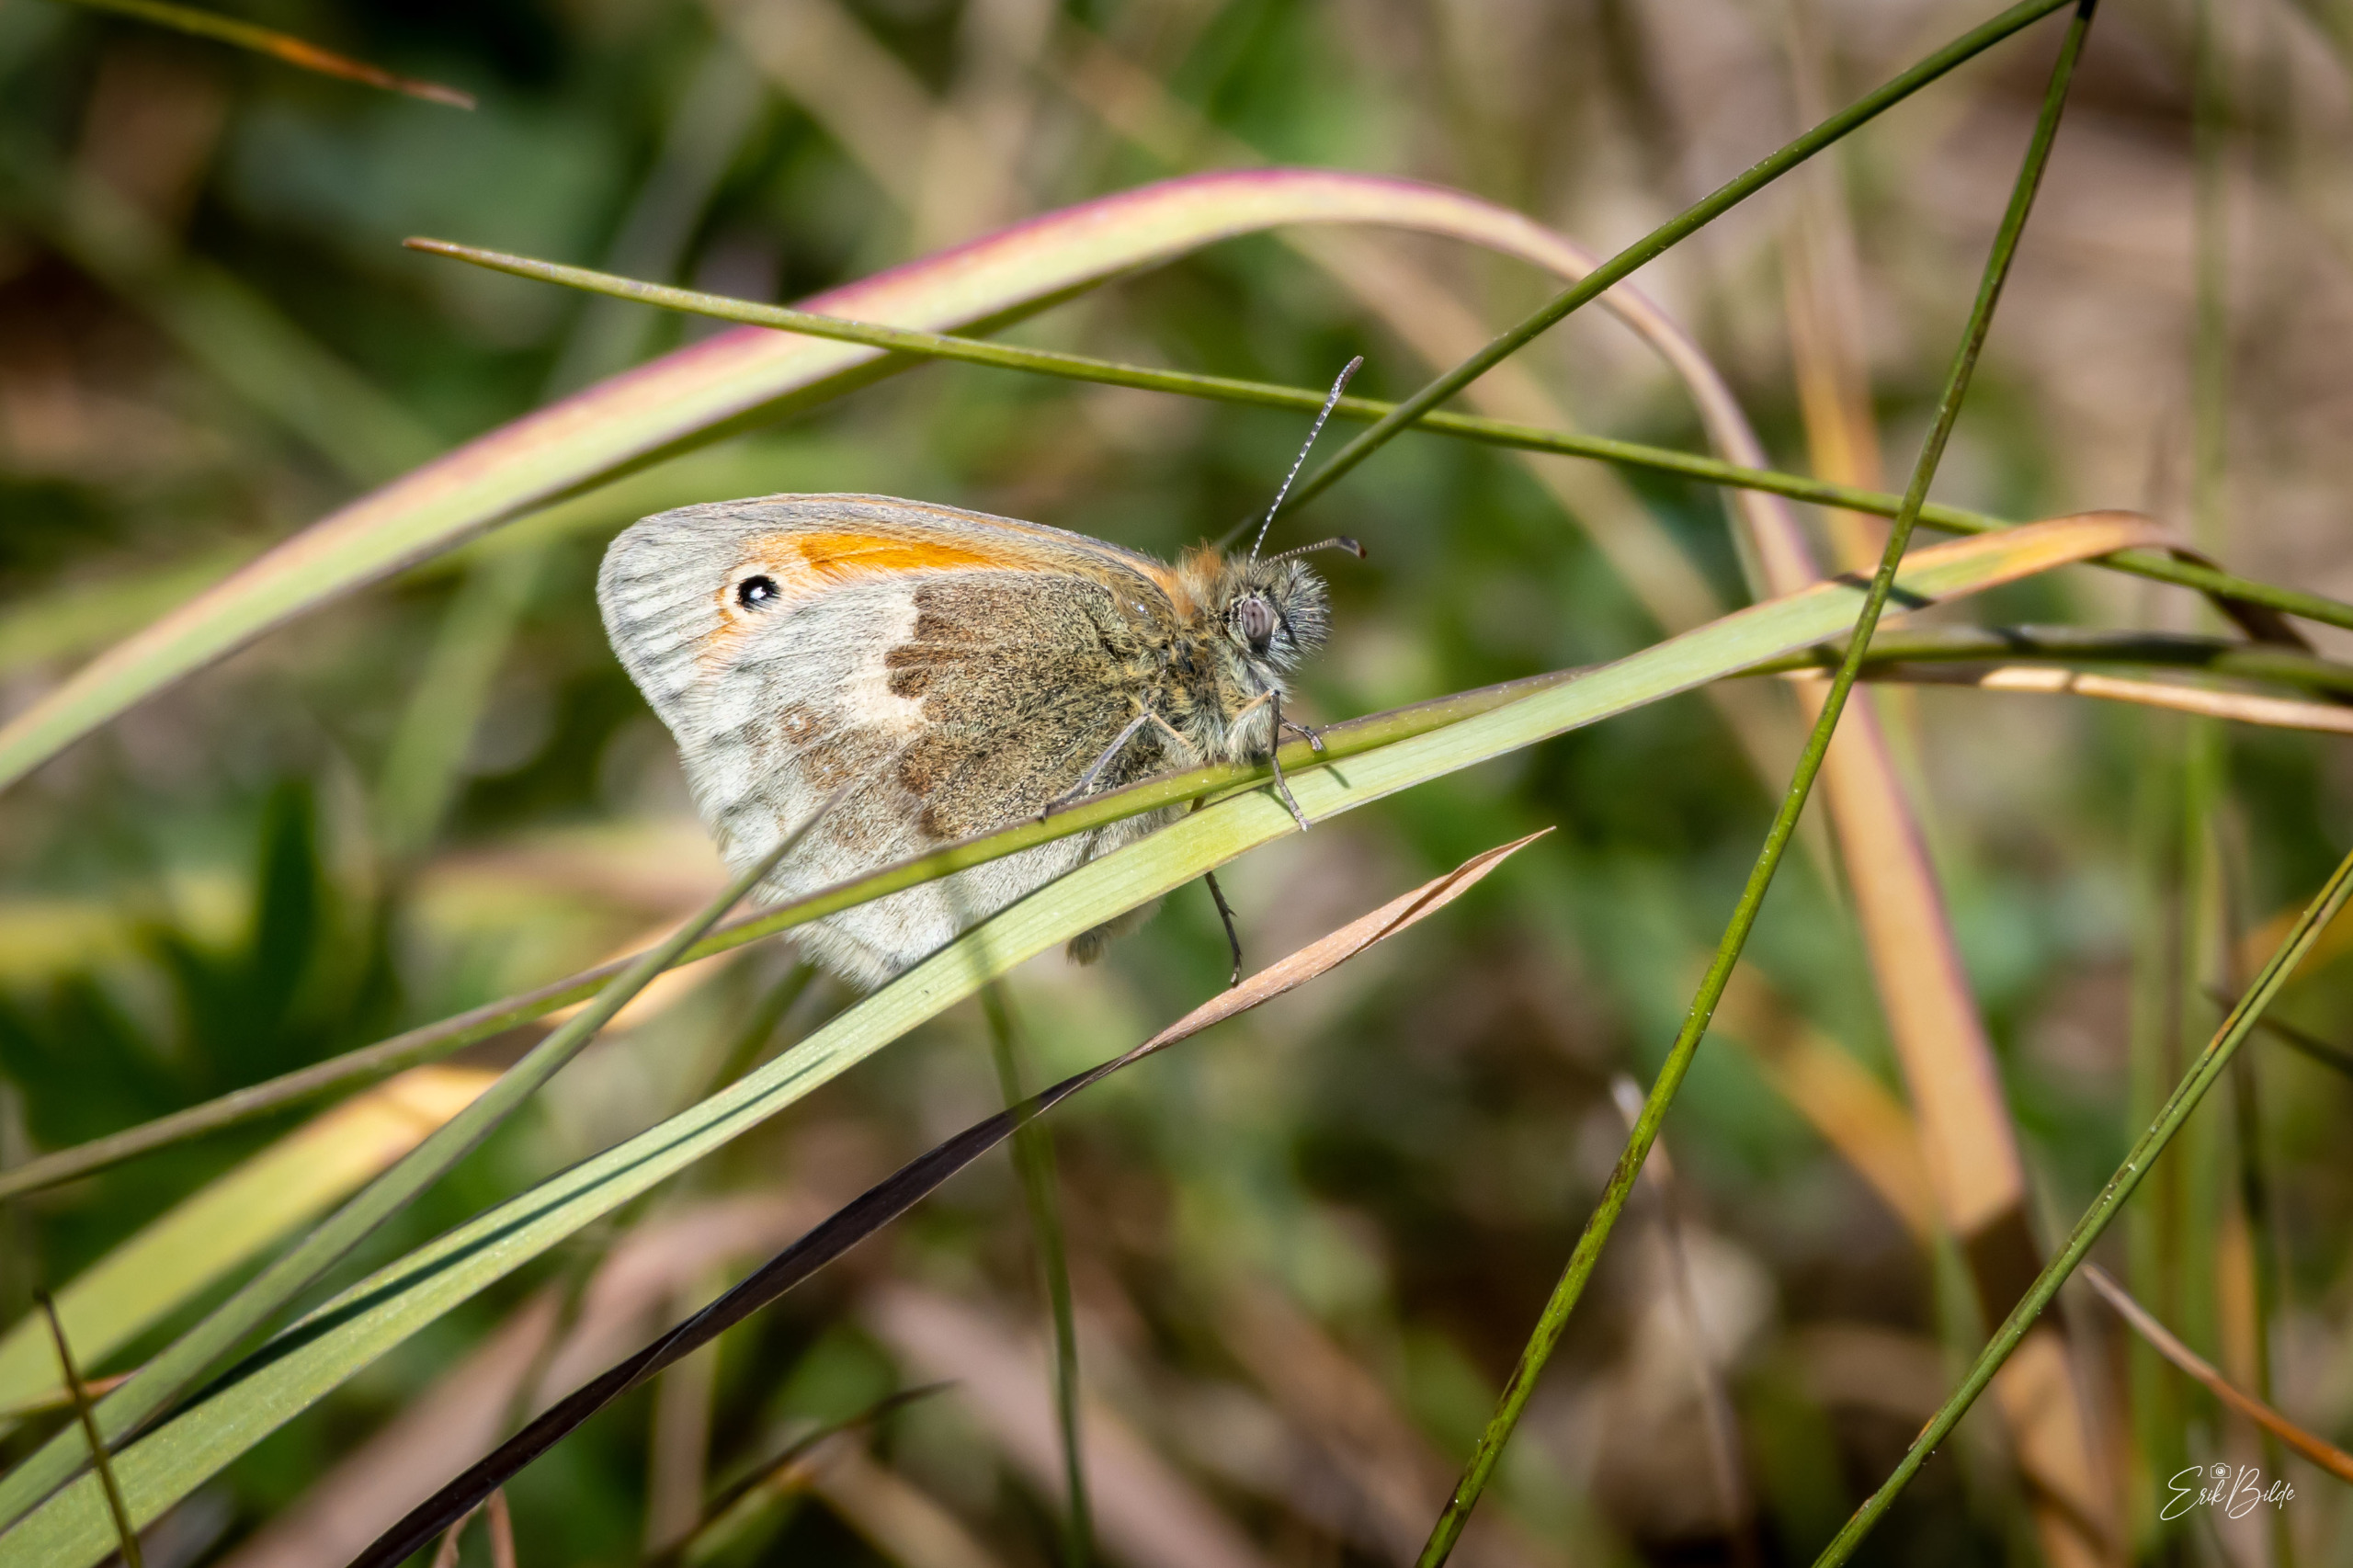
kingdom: Animalia
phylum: Arthropoda
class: Insecta
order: Lepidoptera
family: Nymphalidae
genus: Coenonympha
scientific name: Coenonympha pamphilus
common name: Okkergul randøje
